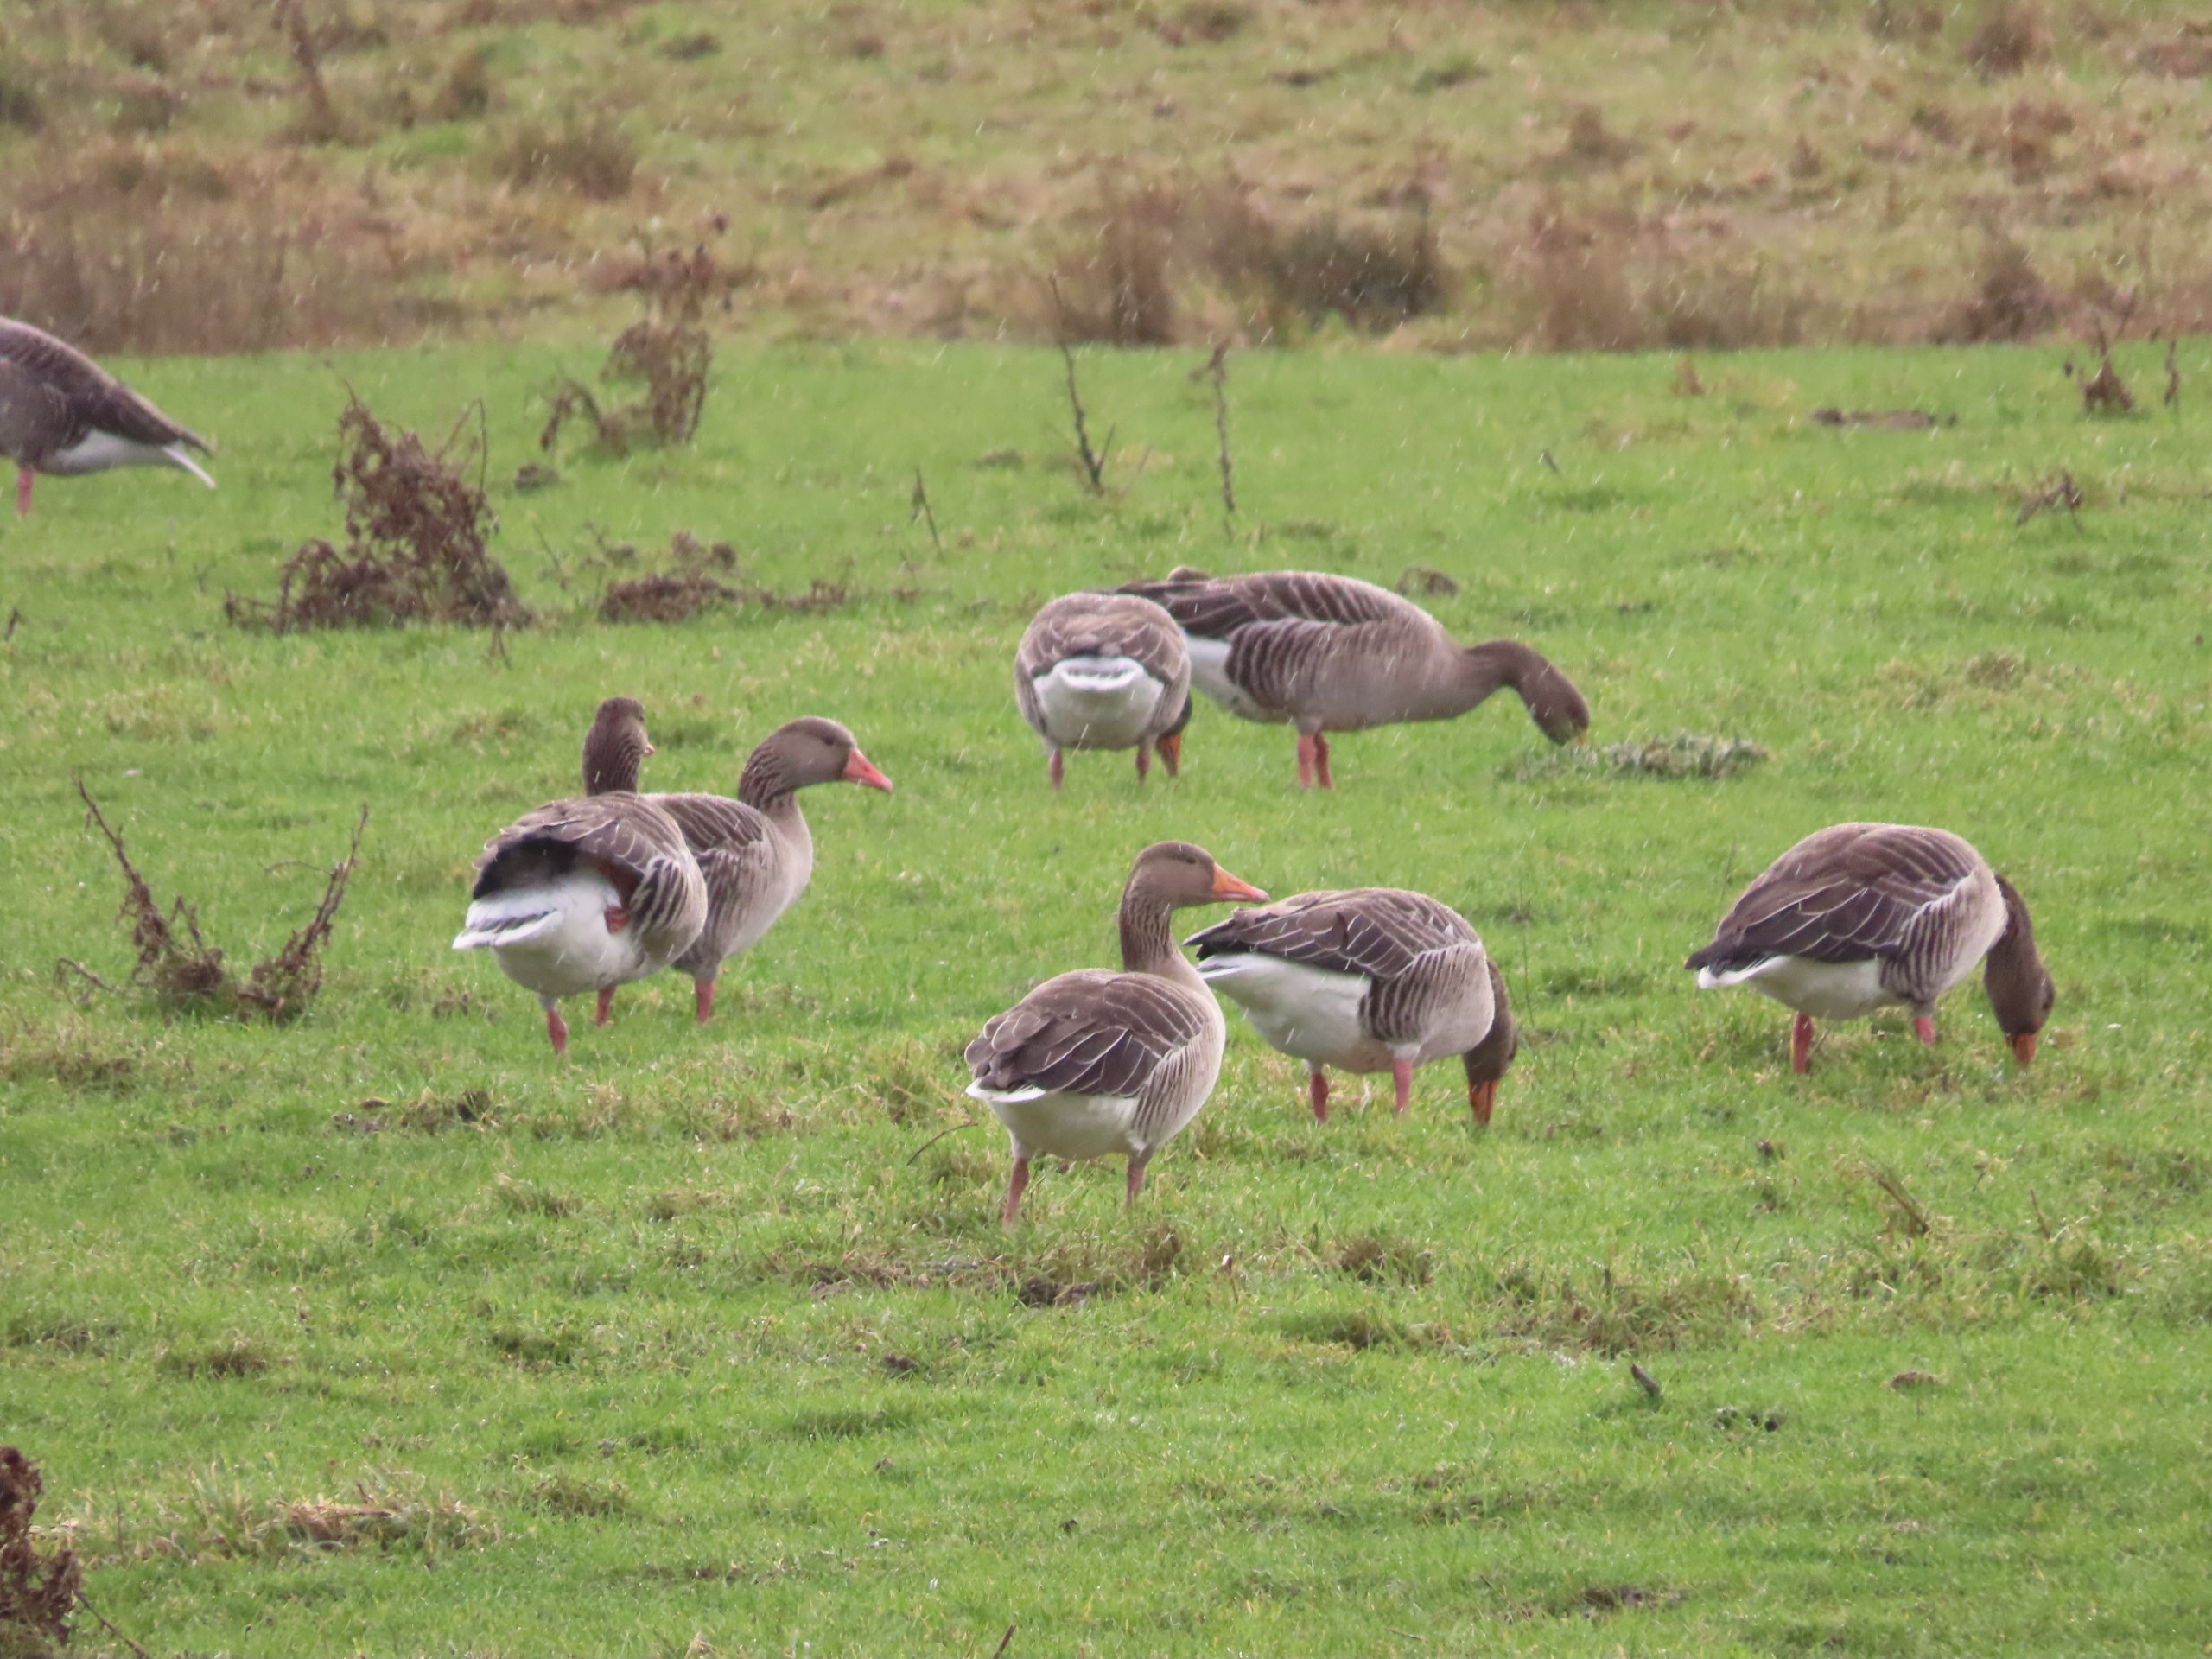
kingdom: Animalia
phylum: Chordata
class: Aves
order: Anseriformes
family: Anatidae
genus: Anser
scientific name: Anser anser
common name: Grågås
